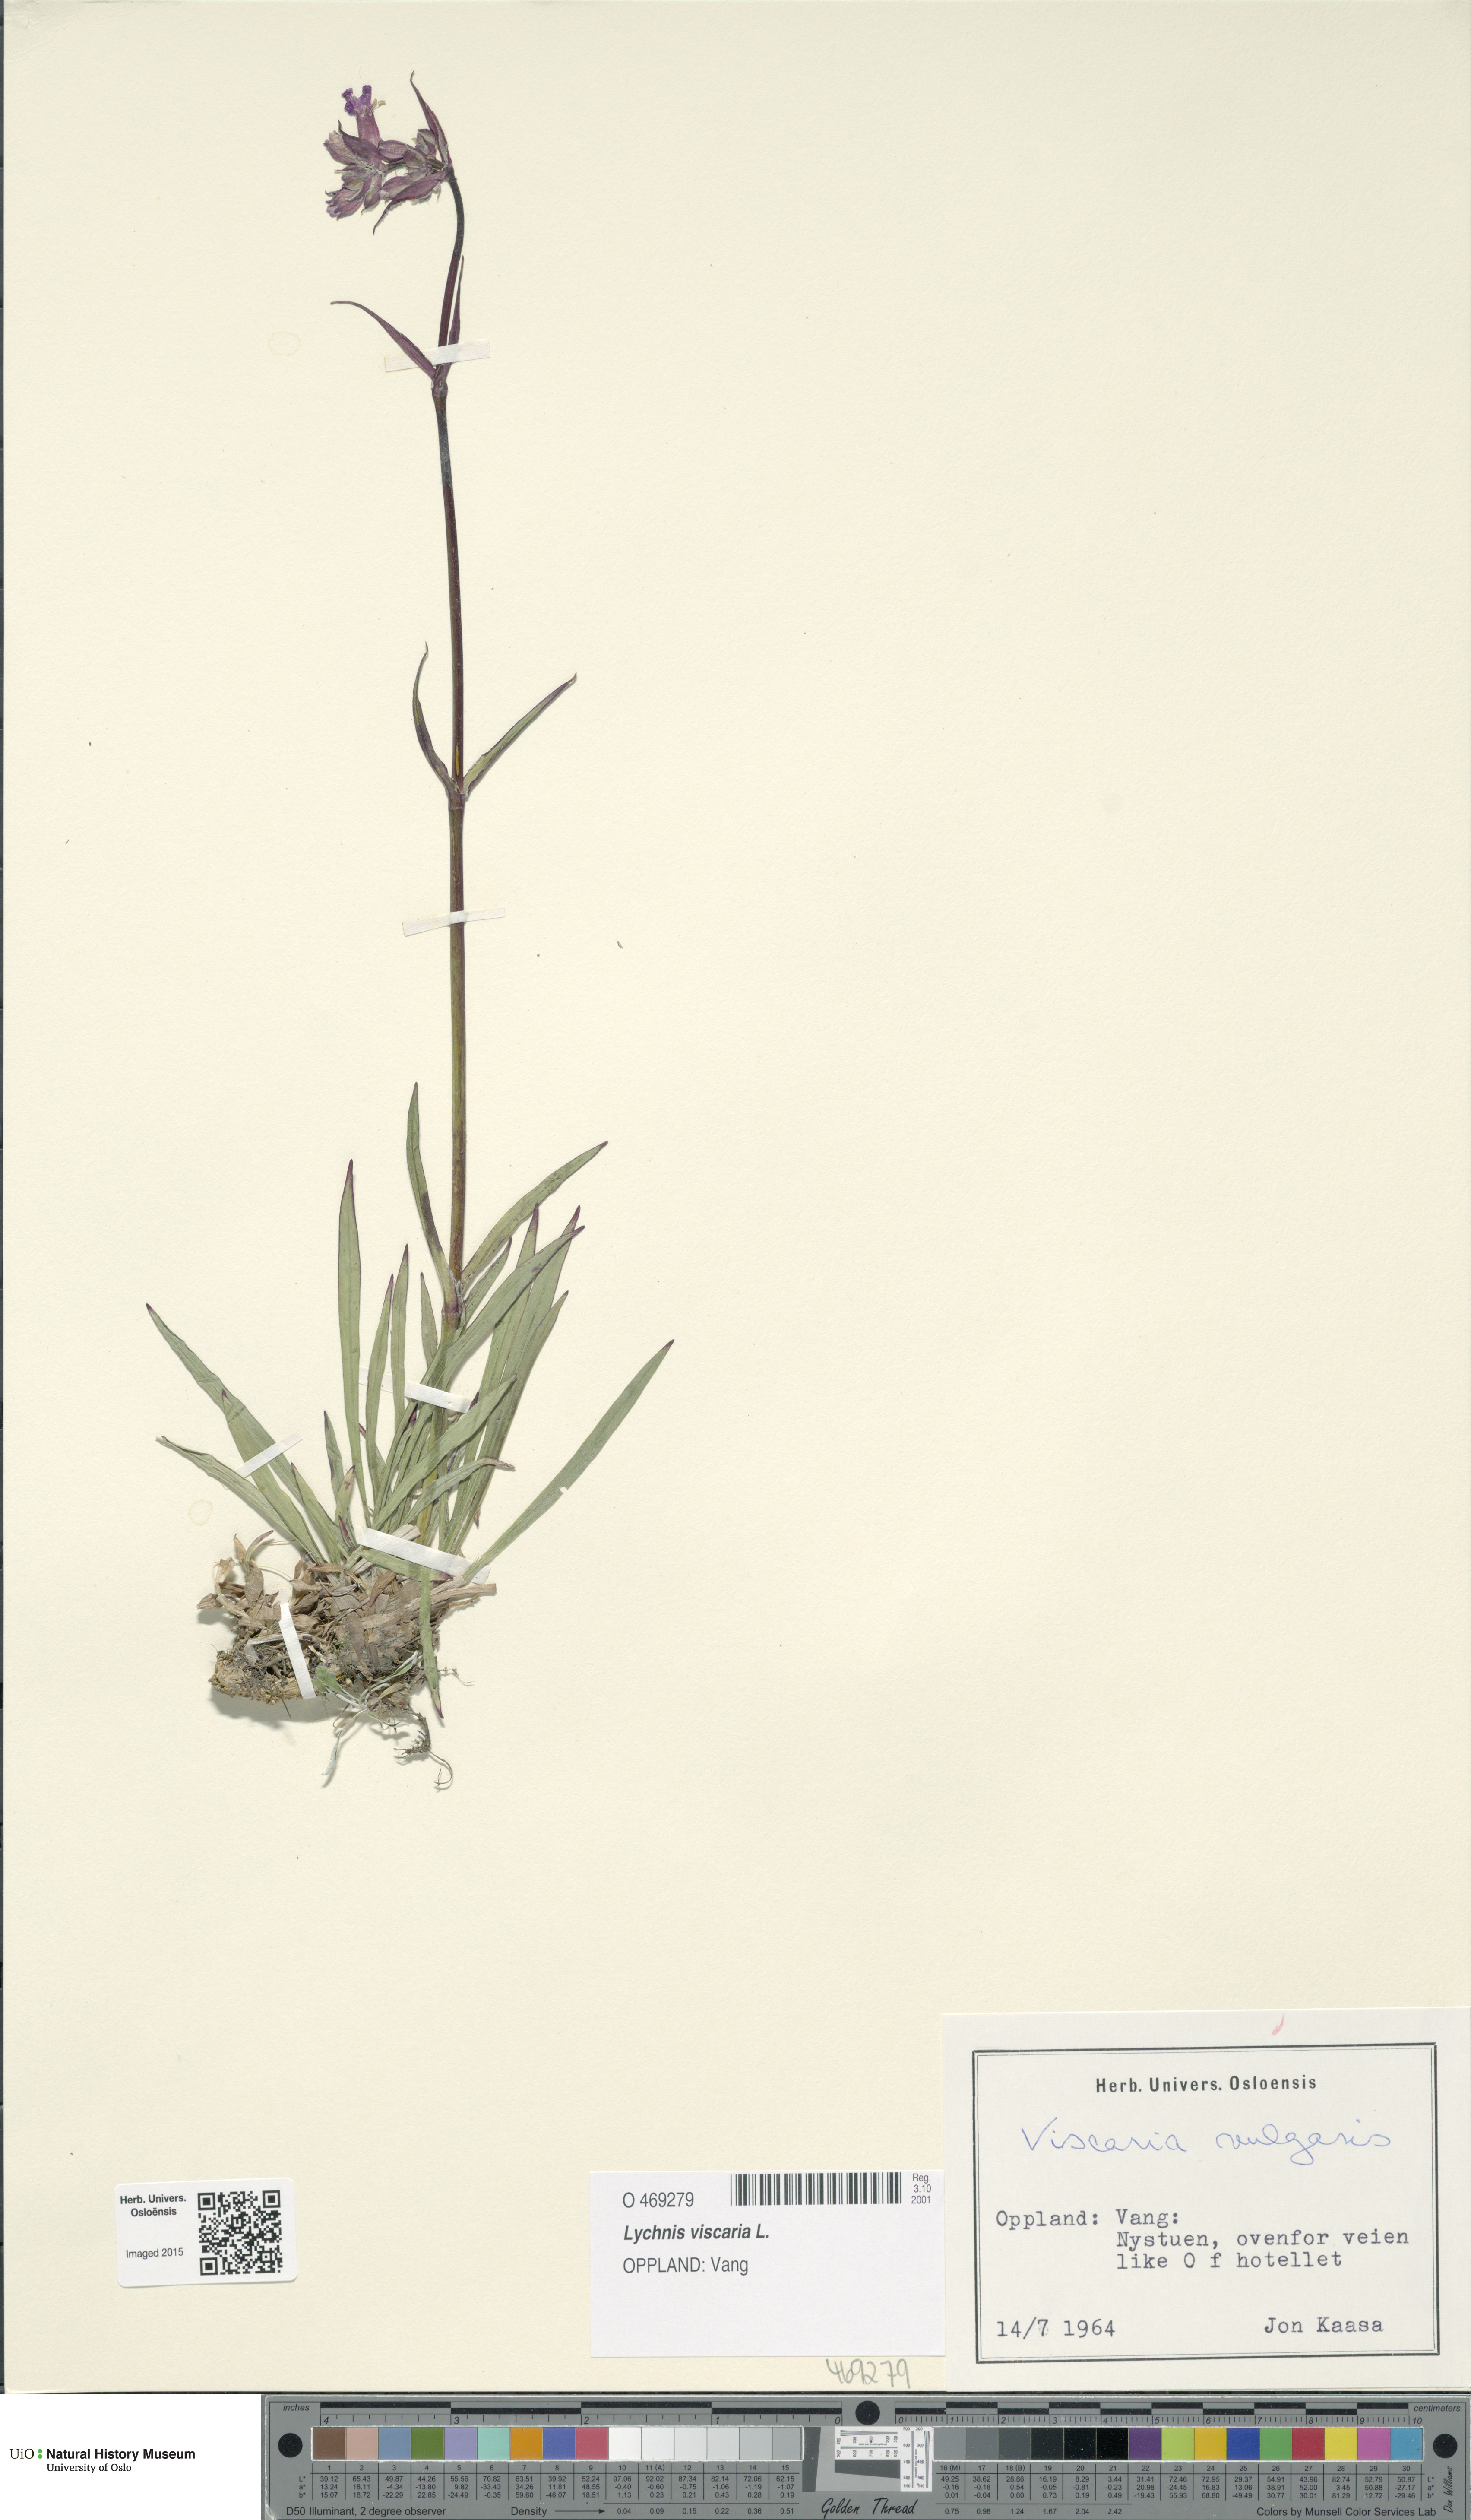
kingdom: Plantae
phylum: Tracheophyta
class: Magnoliopsida
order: Caryophyllales
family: Caryophyllaceae
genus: Viscaria
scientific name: Viscaria vulgaris
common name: Clammy campion
